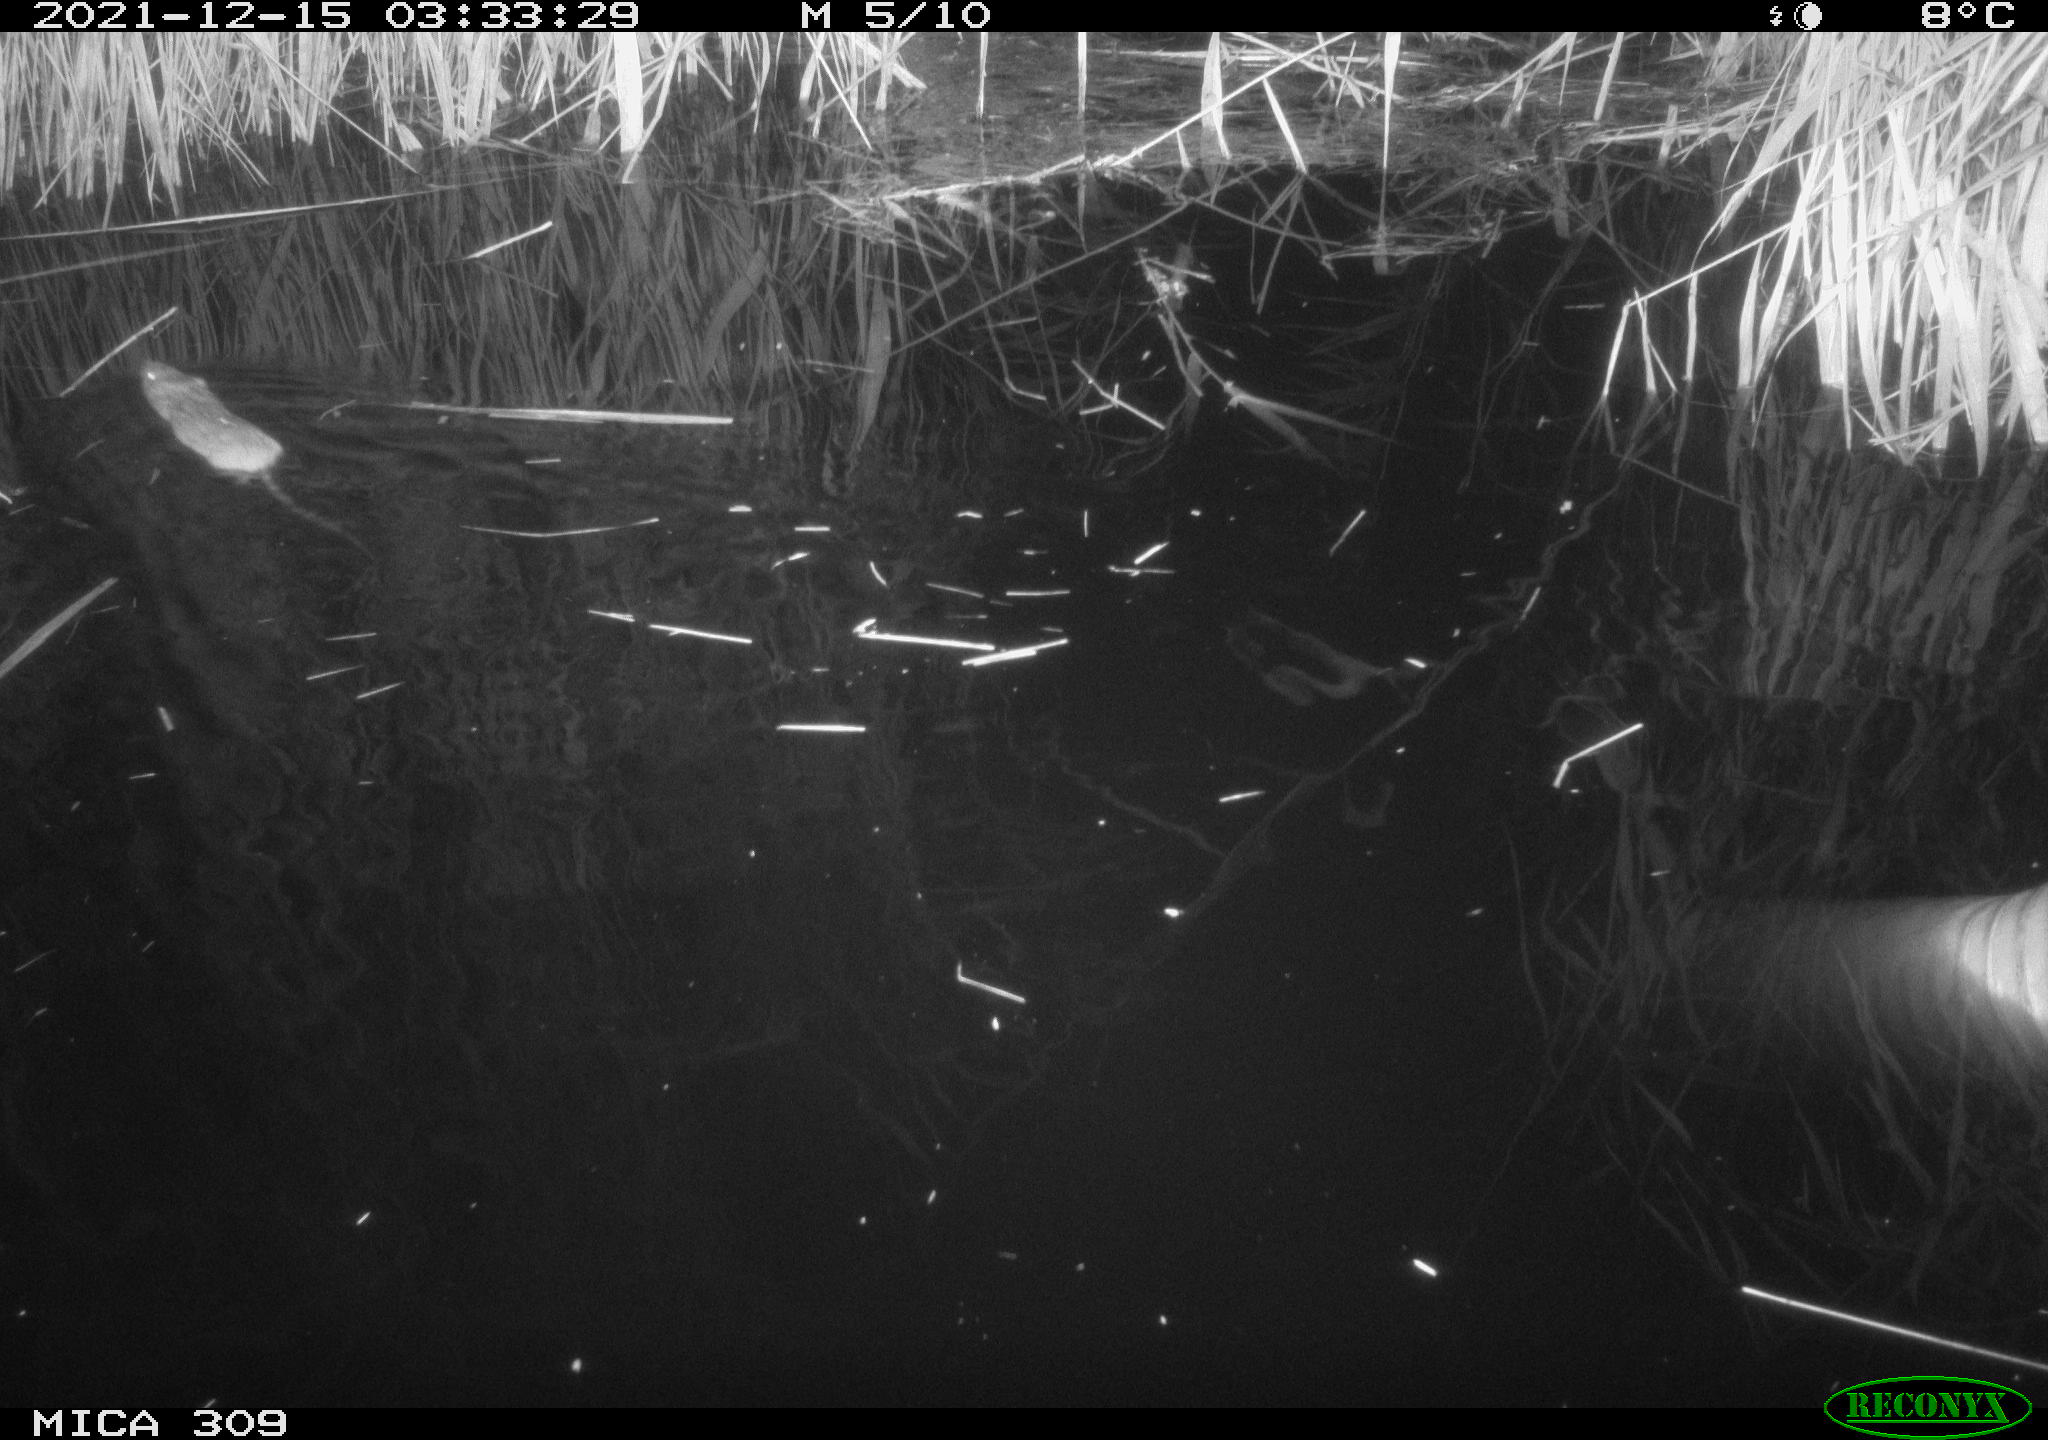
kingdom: Animalia
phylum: Chordata
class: Mammalia
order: Rodentia
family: Muridae
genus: Rattus
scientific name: Rattus norvegicus
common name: Brown rat
